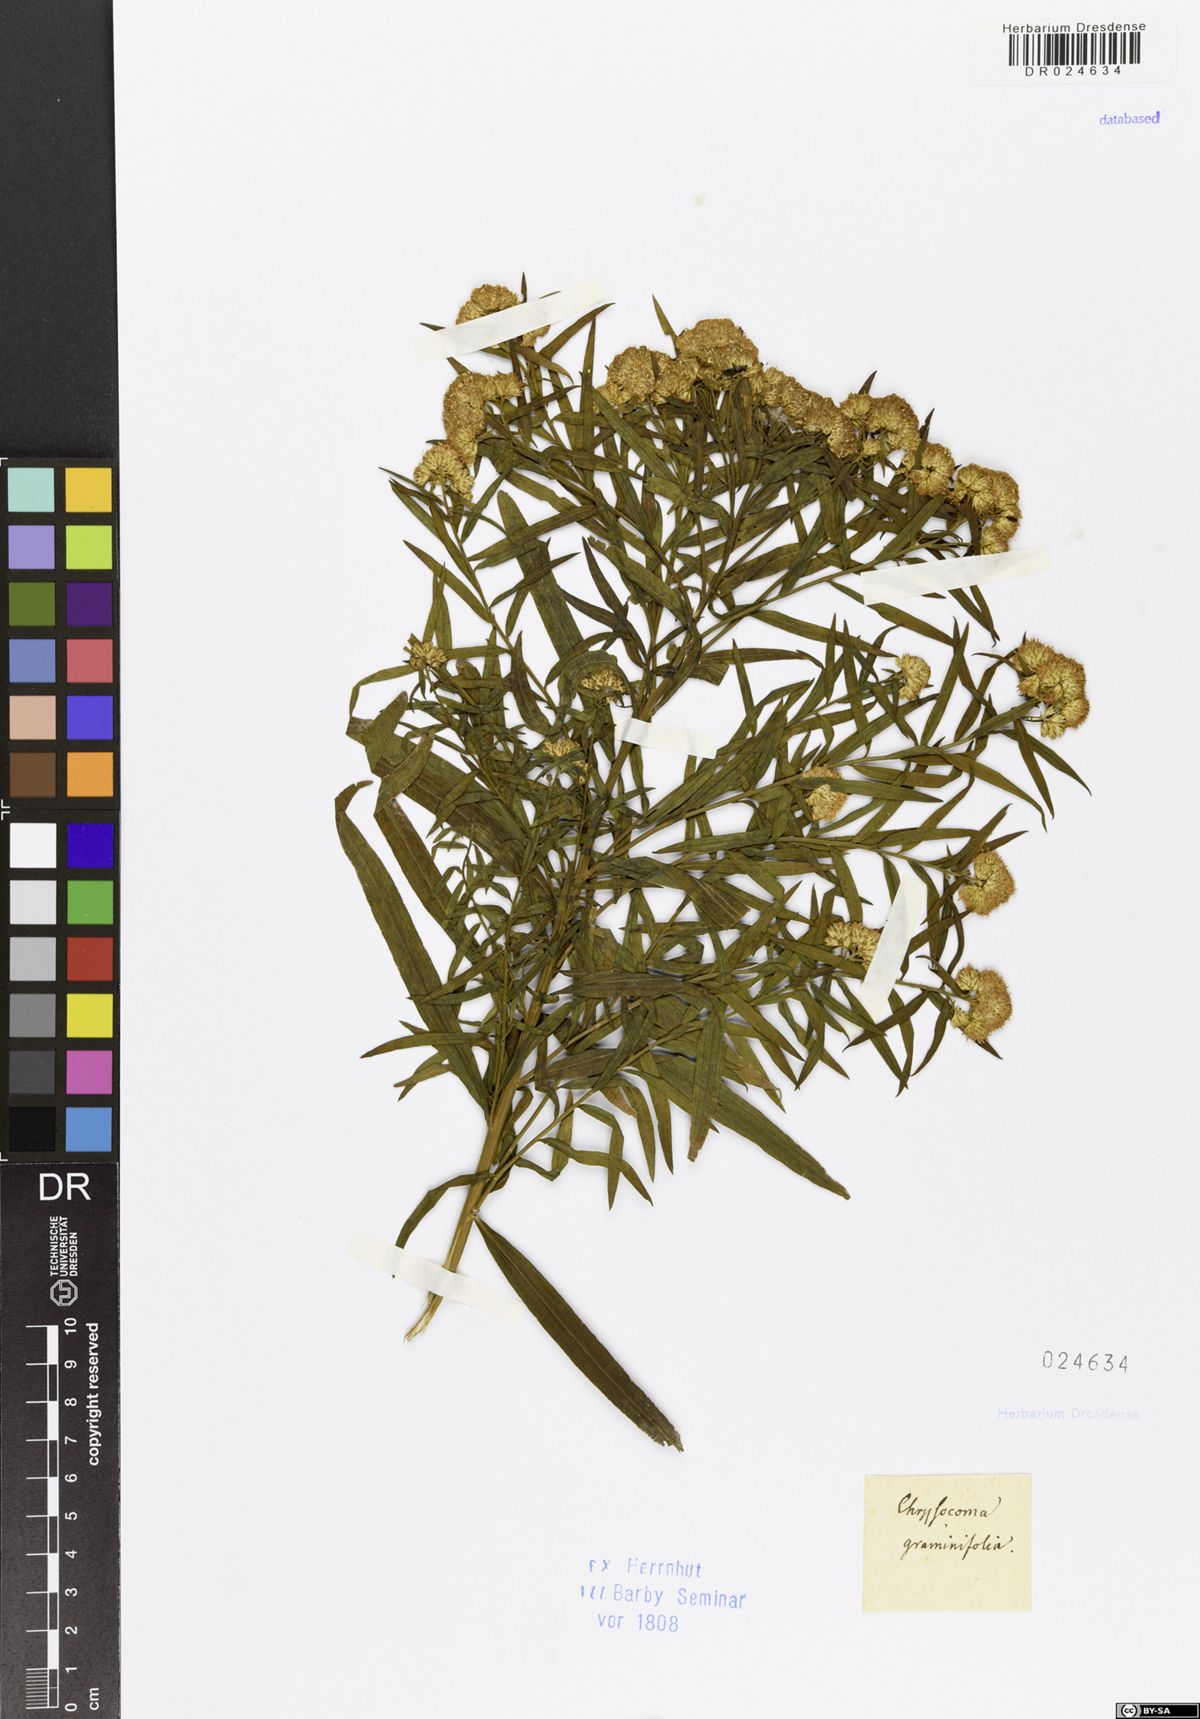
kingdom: Plantae
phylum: Tracheophyta
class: Magnoliopsida
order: Asterales
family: Asteraceae
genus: Euthamia
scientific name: Euthamia graminifolia
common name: Common goldentop
